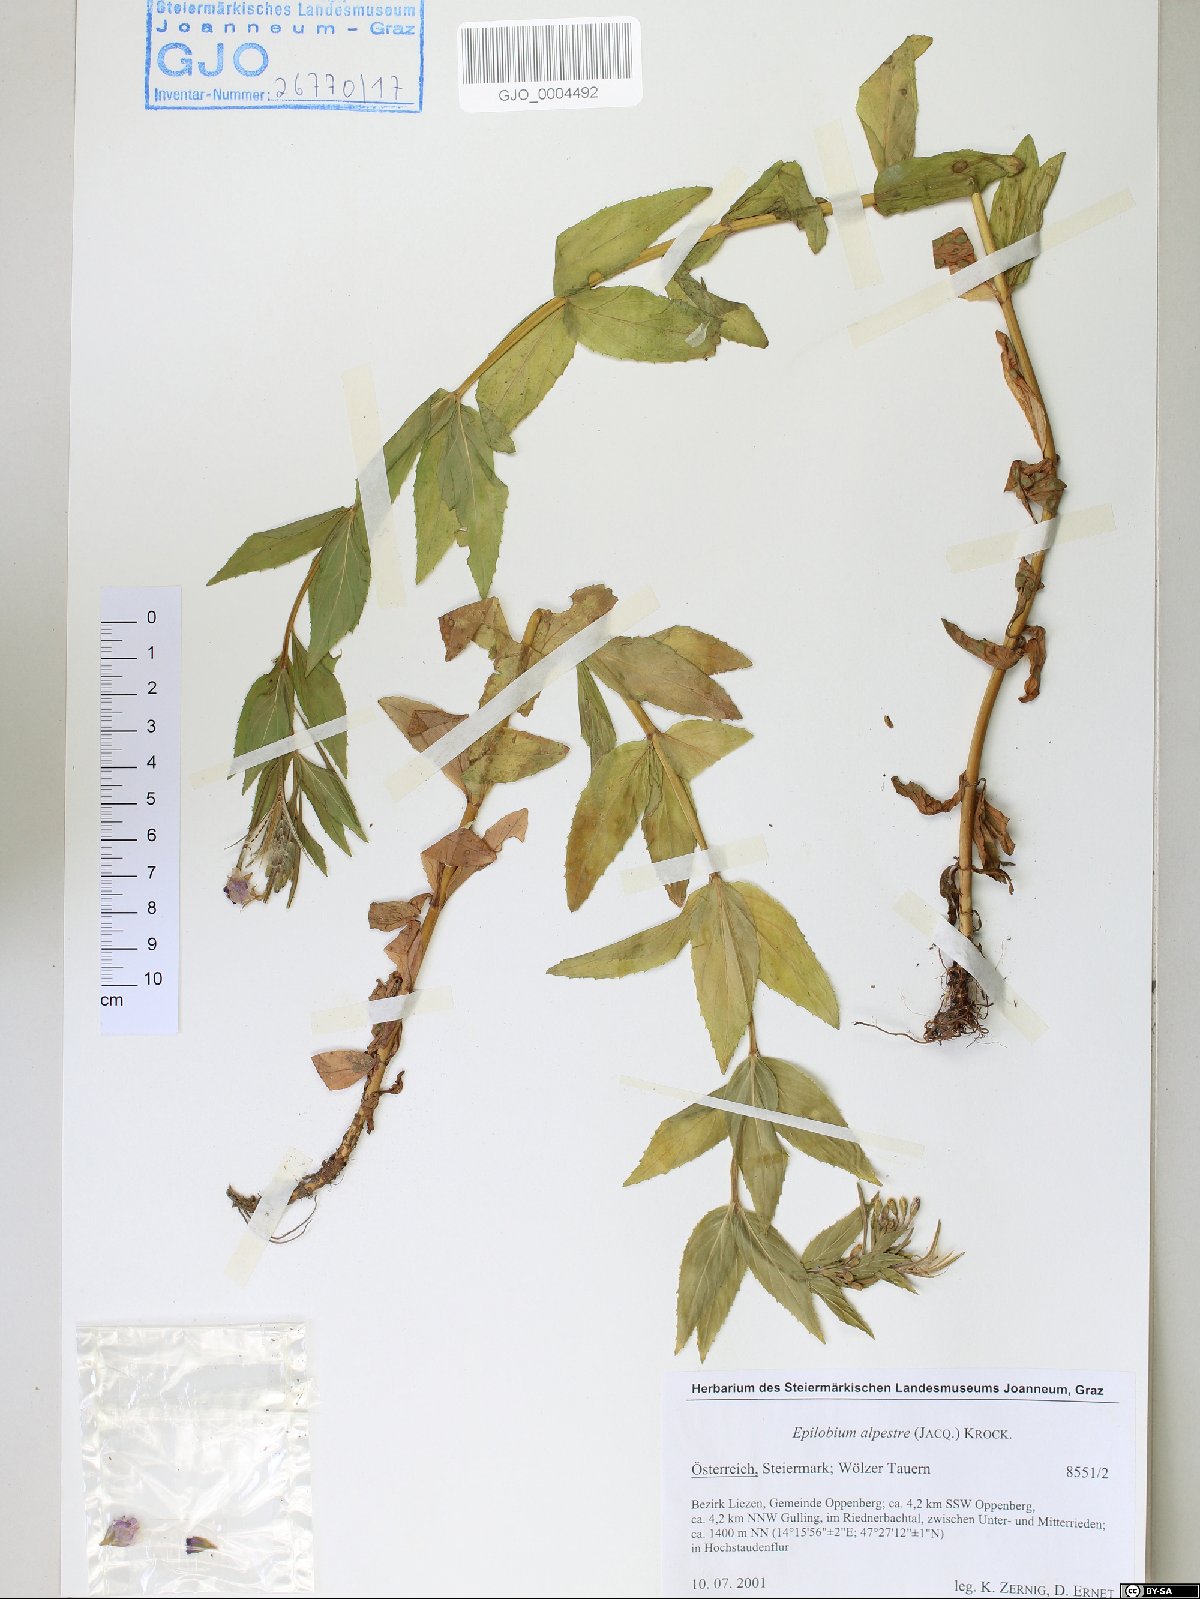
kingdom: Plantae
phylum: Tracheophyta
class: Magnoliopsida
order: Myrtales
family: Onagraceae
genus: Epilobium
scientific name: Epilobium alpestre
